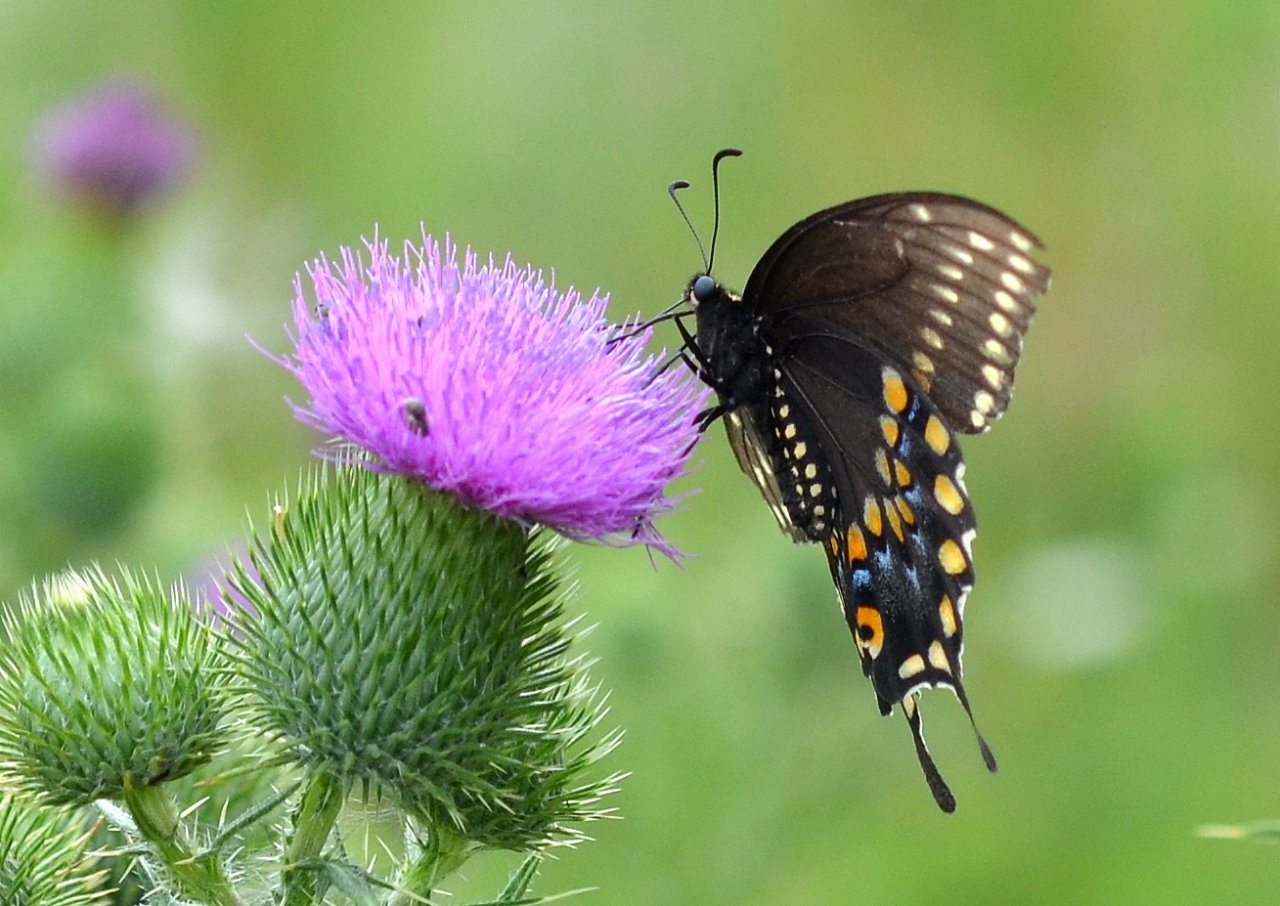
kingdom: Animalia
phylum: Arthropoda
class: Insecta
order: Lepidoptera
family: Papilionidae
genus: Papilio
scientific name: Papilio polyxenes
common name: Black Swallowtail
